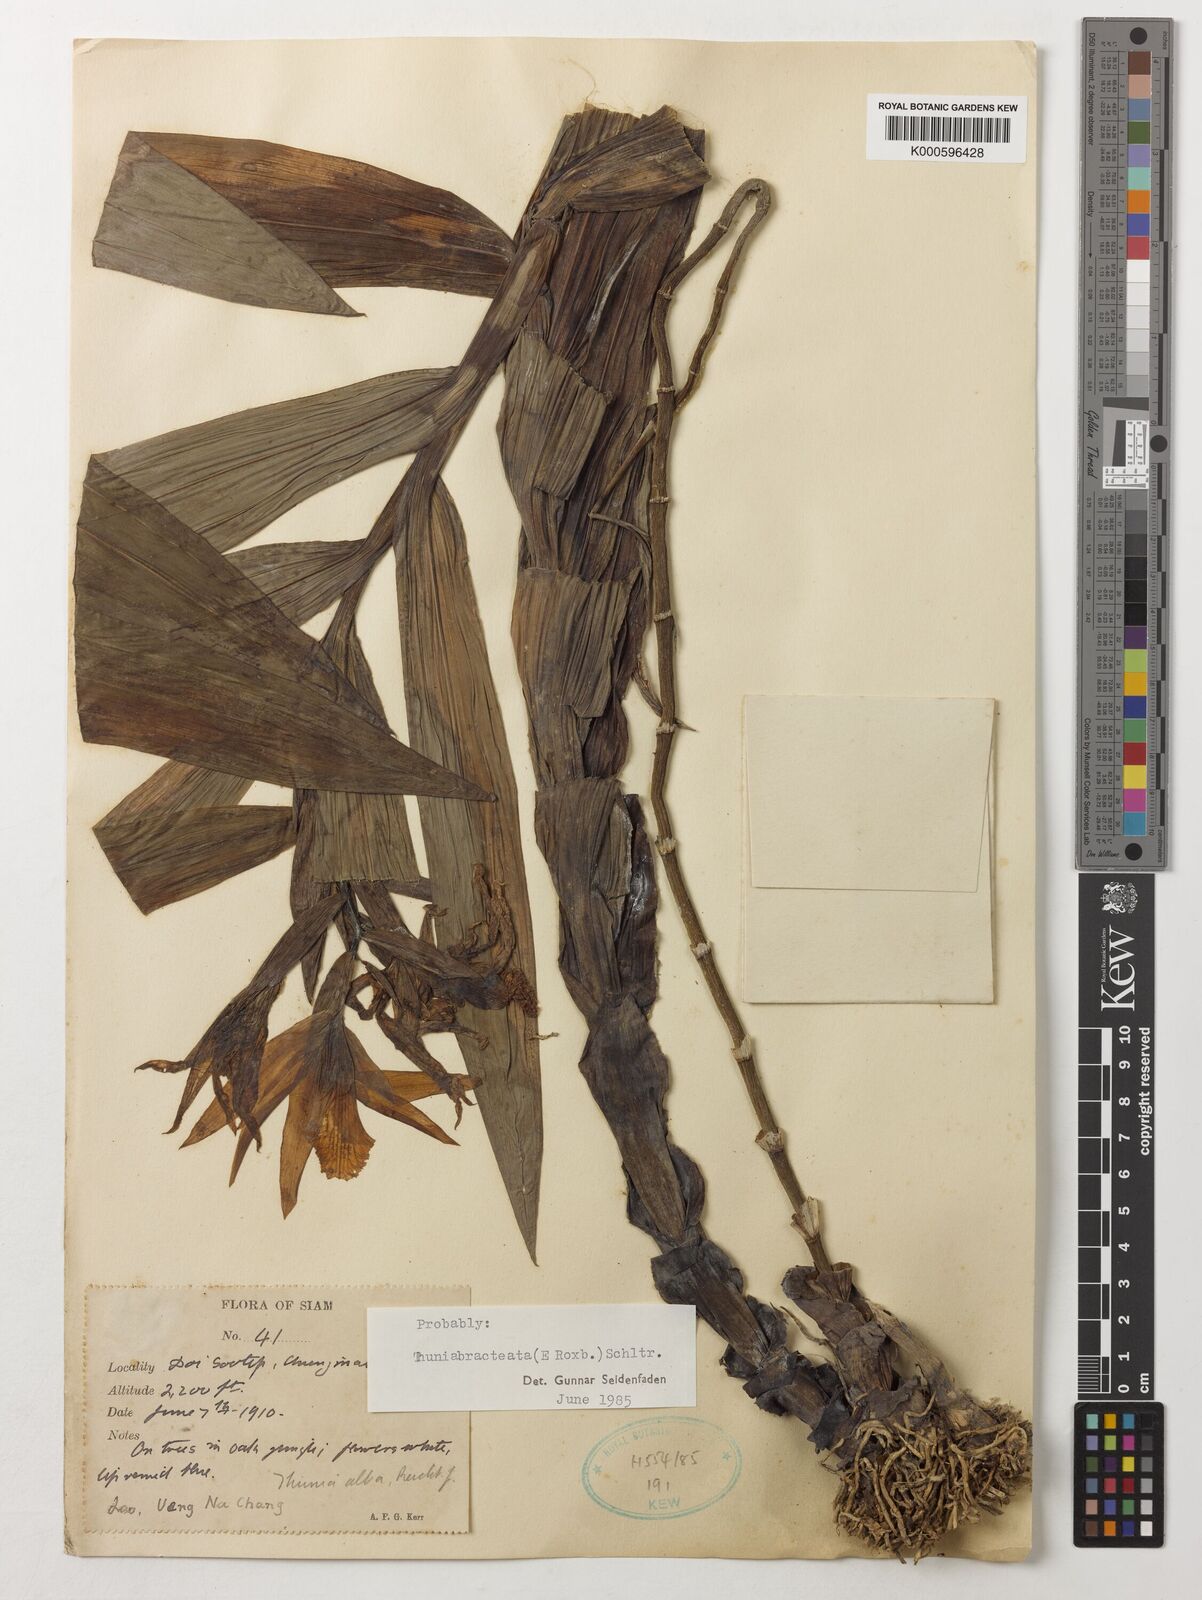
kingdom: Plantae
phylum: Tracheophyta
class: Liliopsida
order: Asparagales
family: Orchidaceae
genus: Thunia
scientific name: Thunia alba
